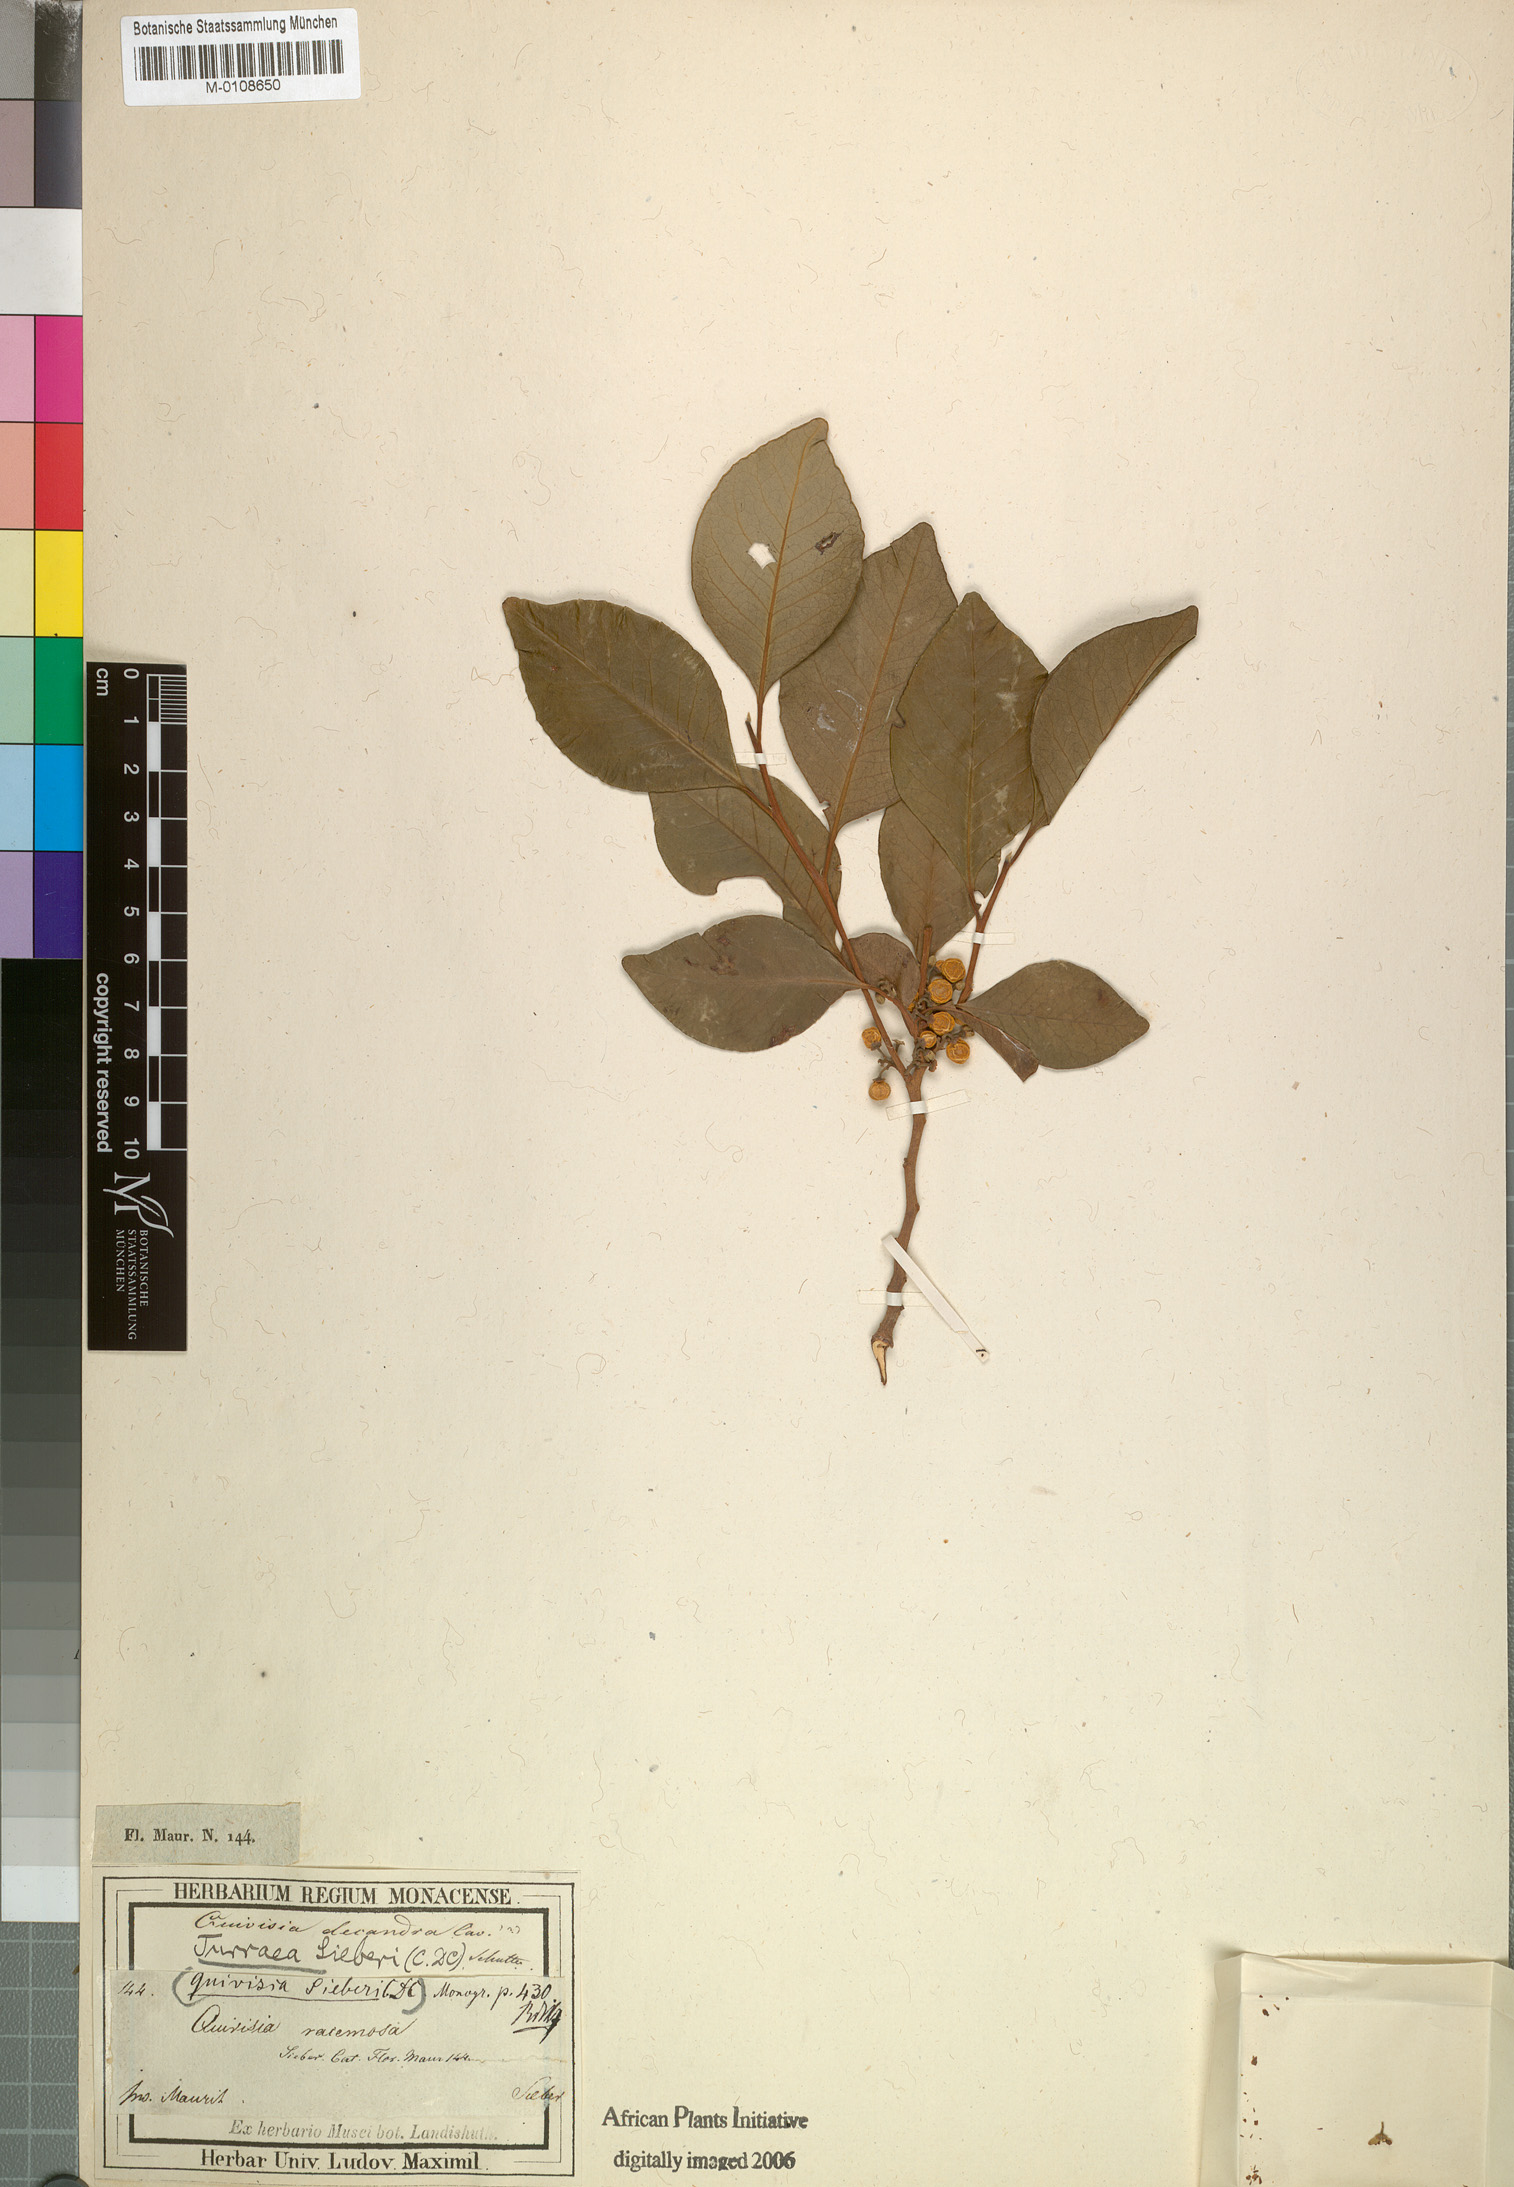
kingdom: Plantae
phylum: Tracheophyta
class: Magnoliopsida
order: Sapindales
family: Meliaceae
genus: Turraea
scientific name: Turraea rutilans
